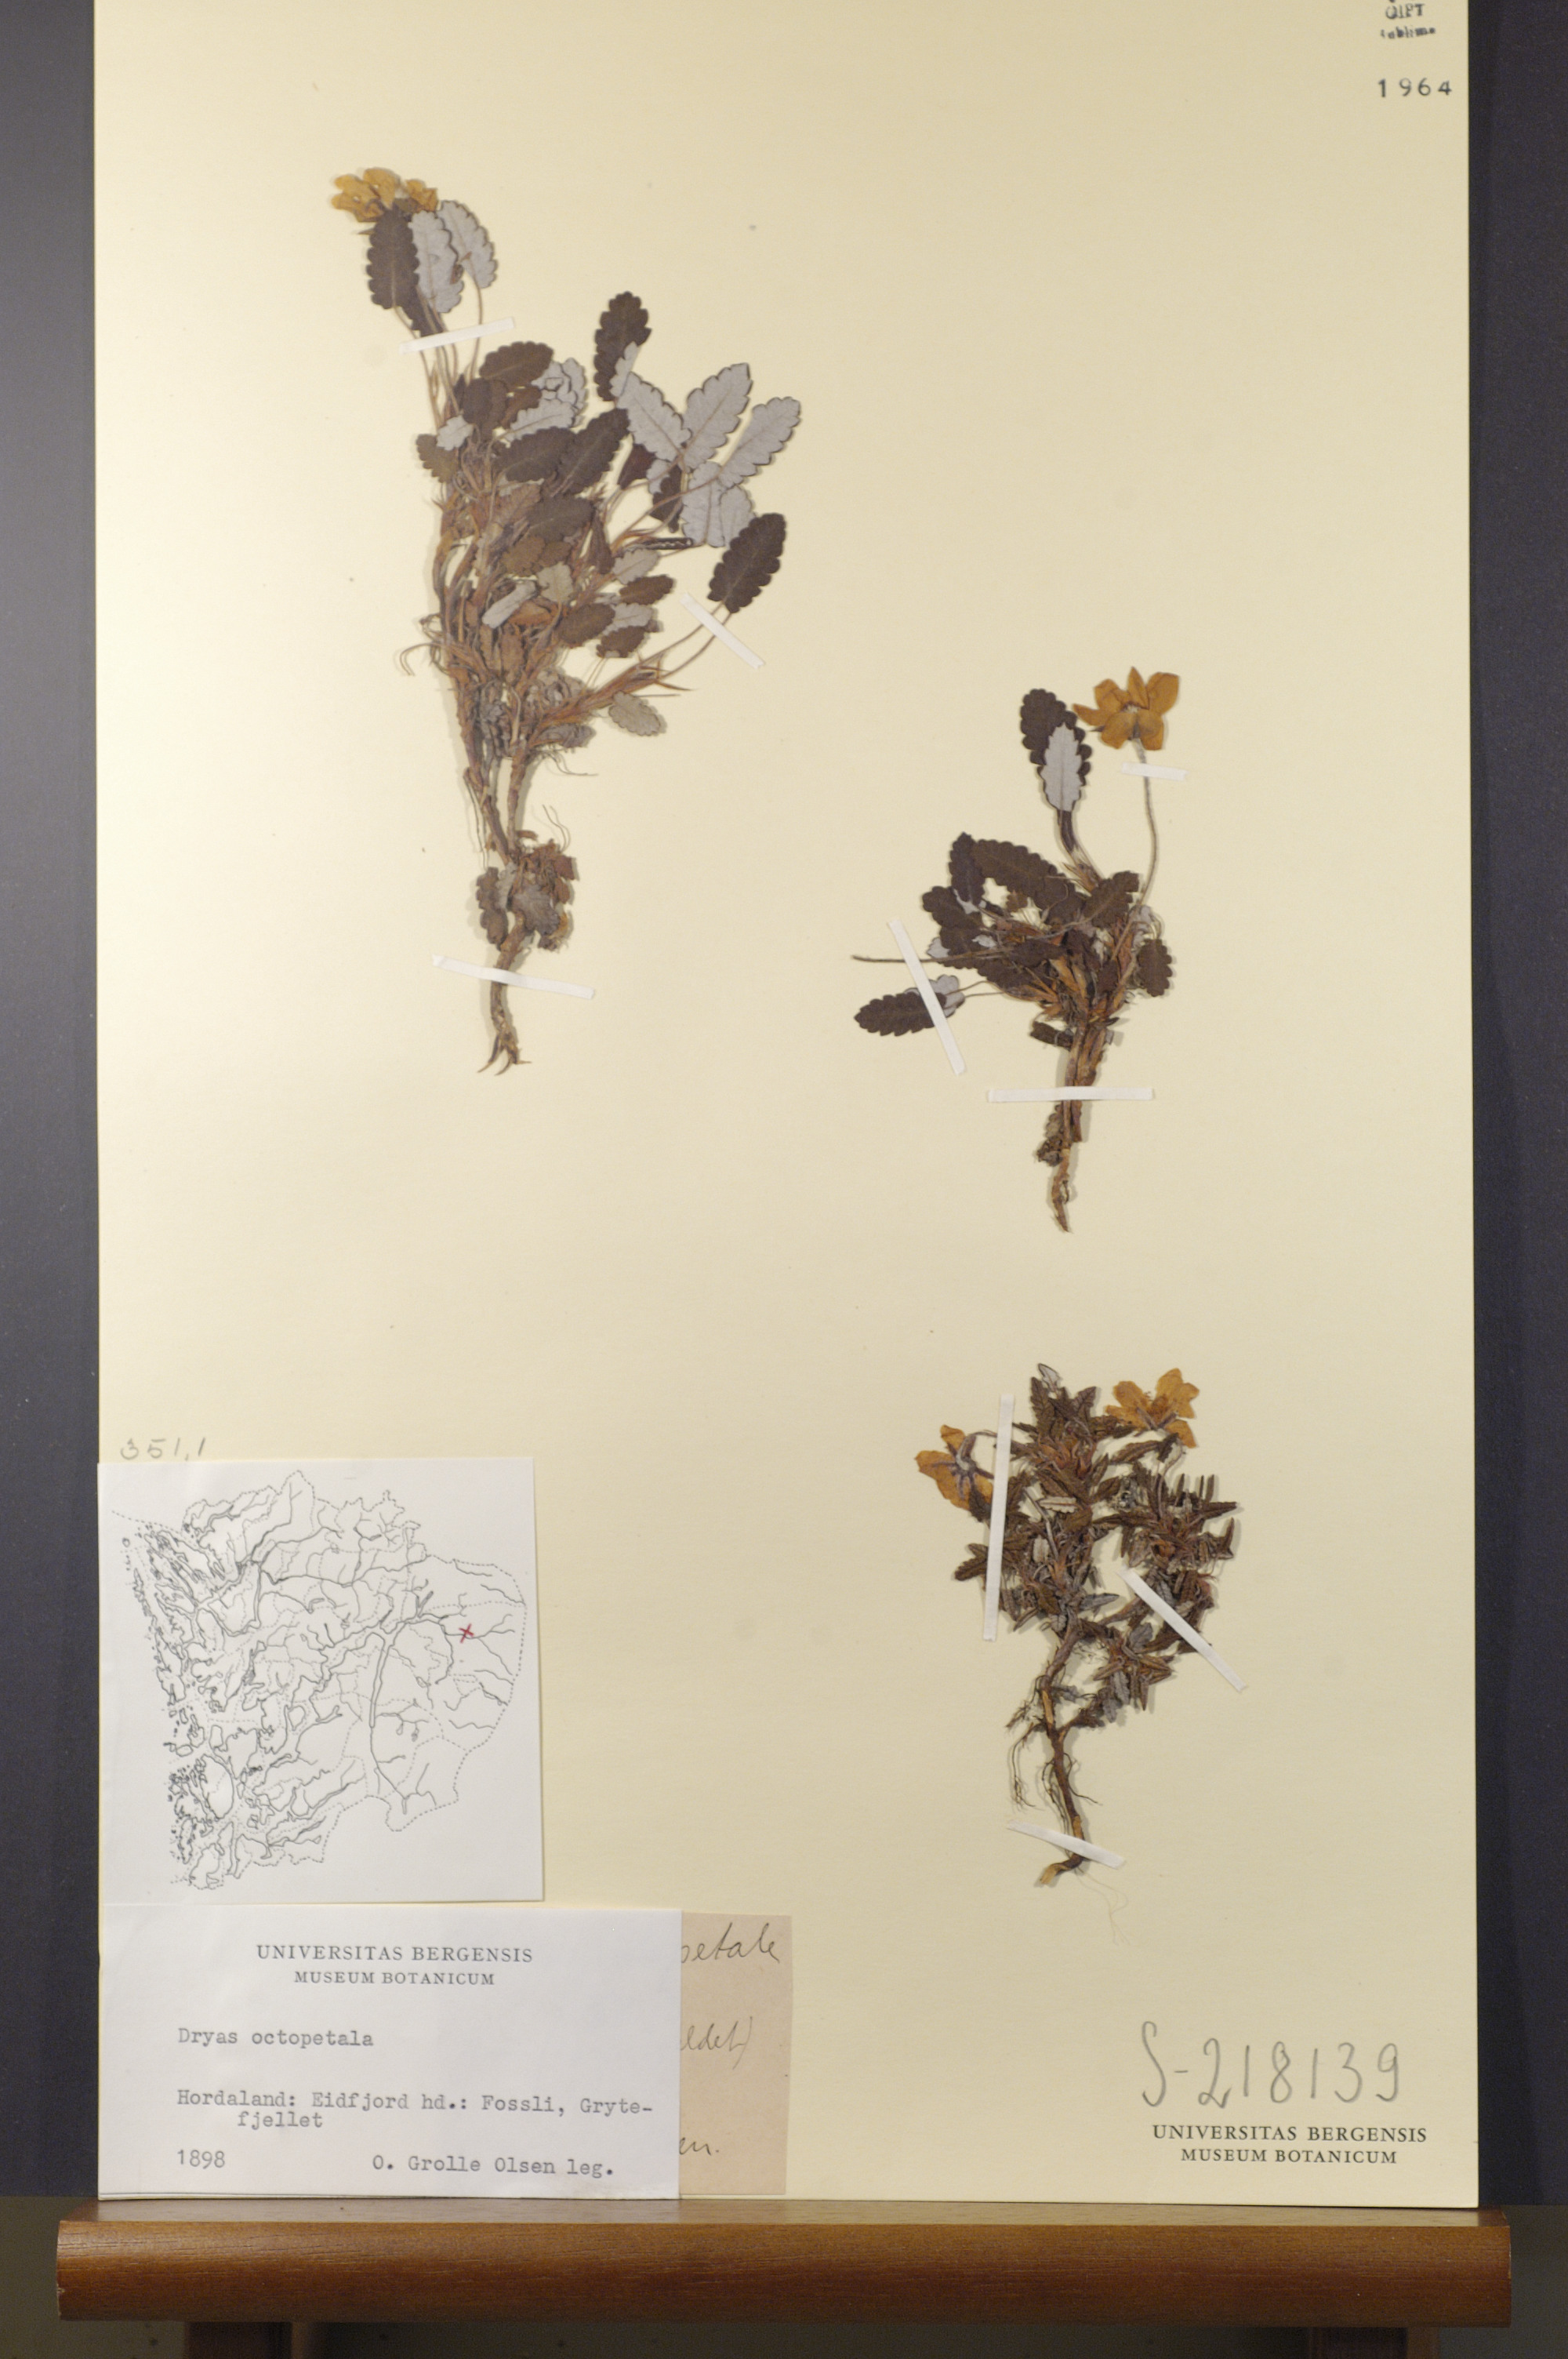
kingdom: Plantae
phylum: Tracheophyta
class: Magnoliopsida
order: Rosales
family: Rosaceae
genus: Dryas
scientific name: Dryas octopetala
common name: Eight-petal mountain-avens
